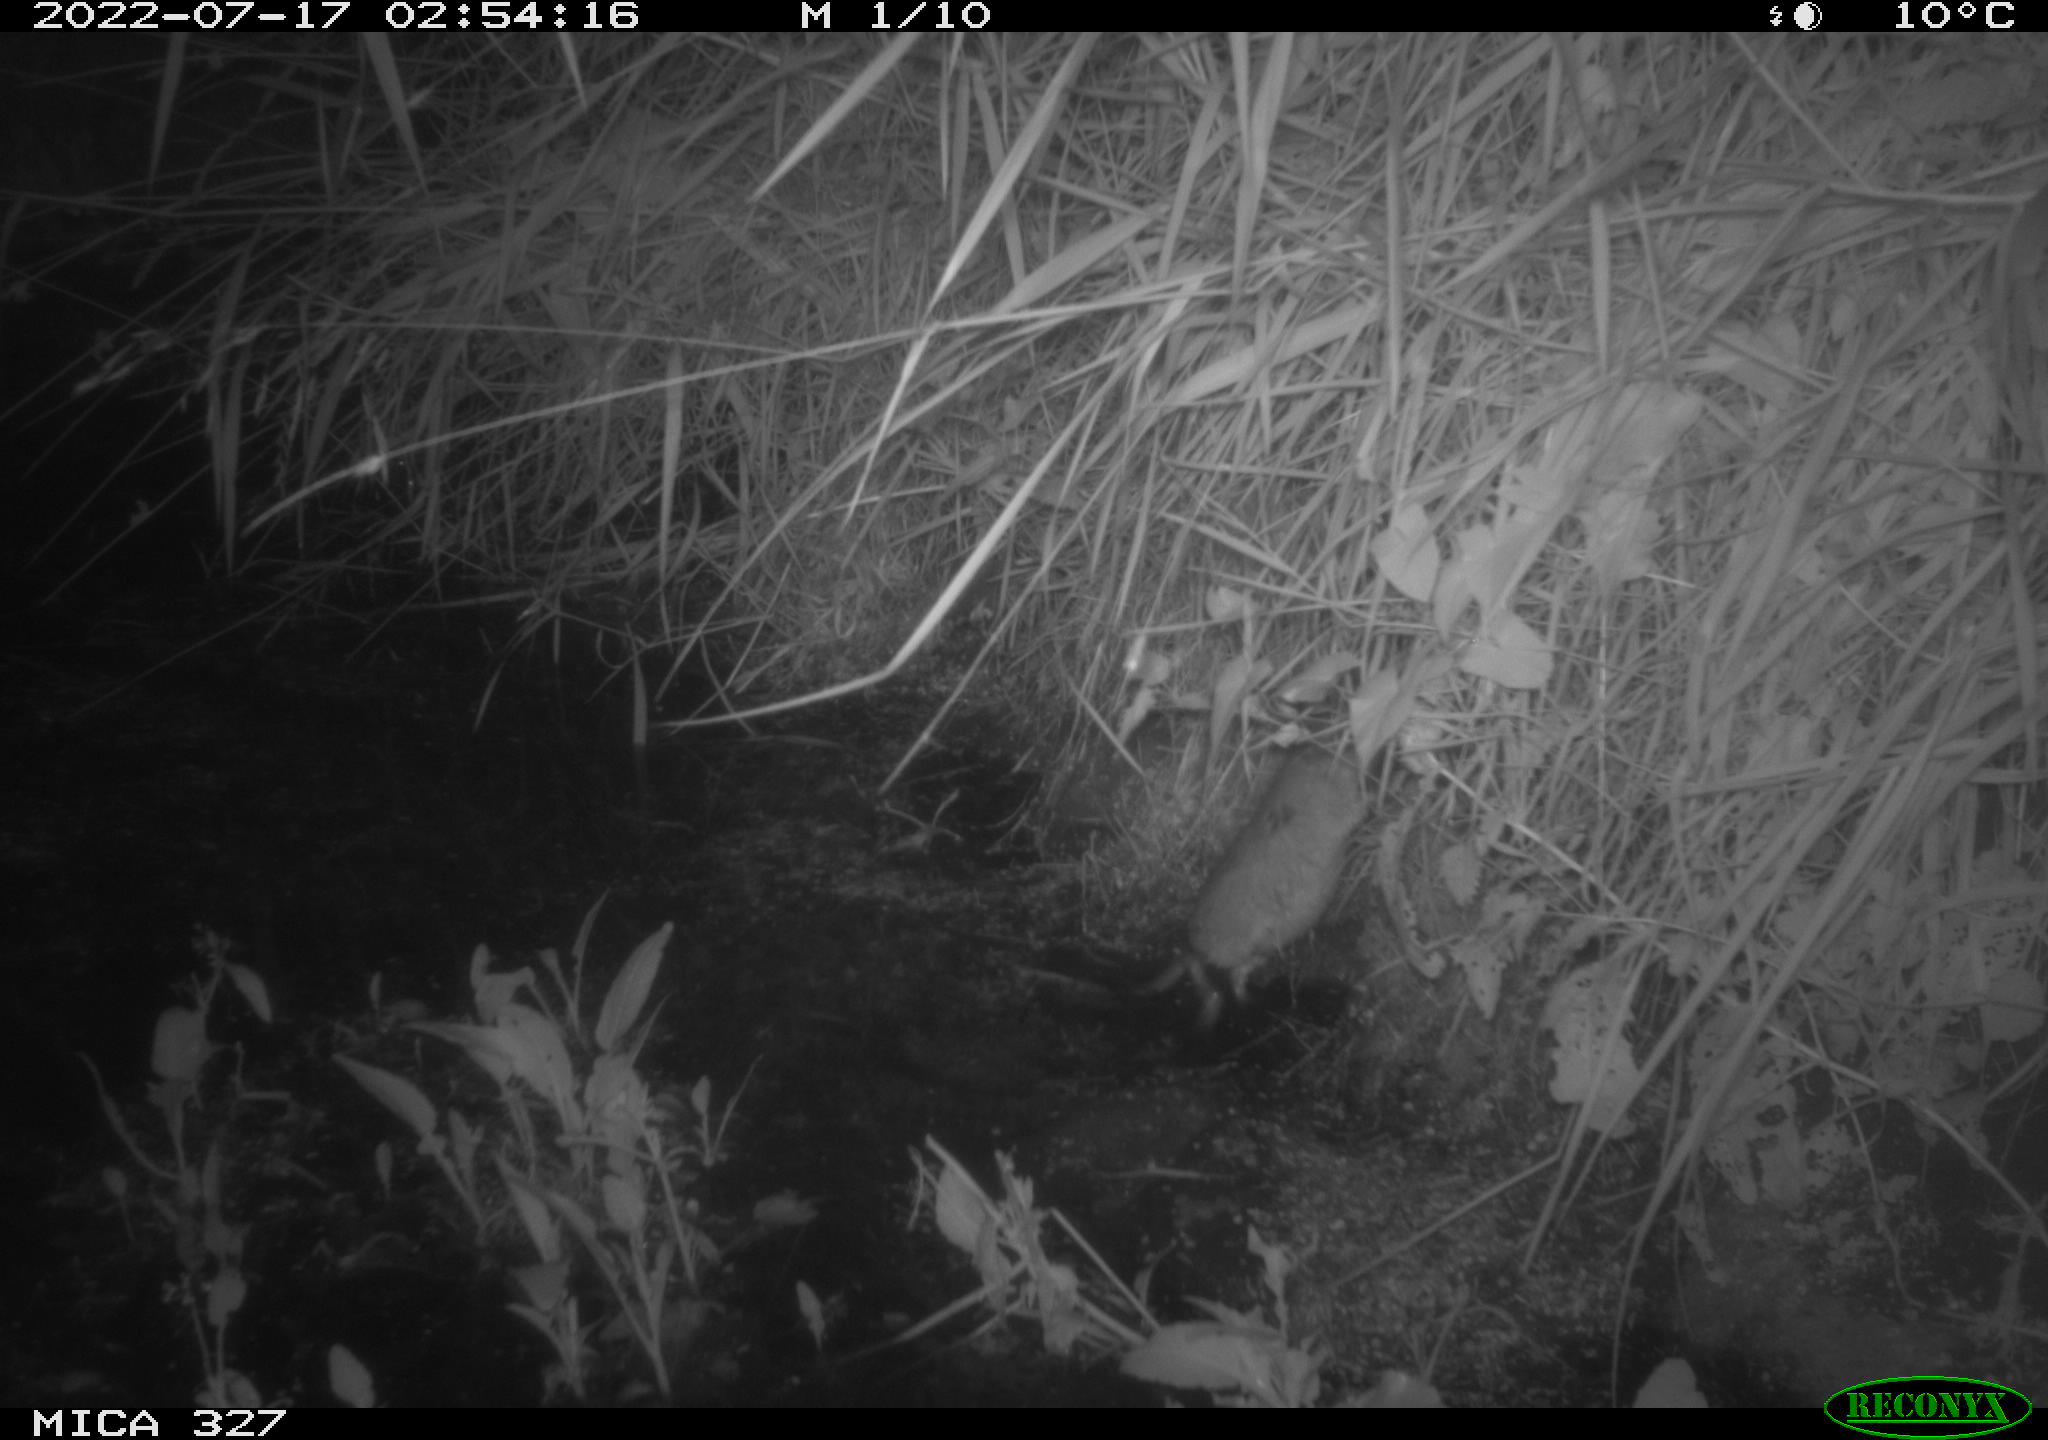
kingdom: Animalia
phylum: Chordata
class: Mammalia
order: Rodentia
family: Cricetidae
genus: Ondatra
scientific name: Ondatra zibethicus
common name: Muskrat
